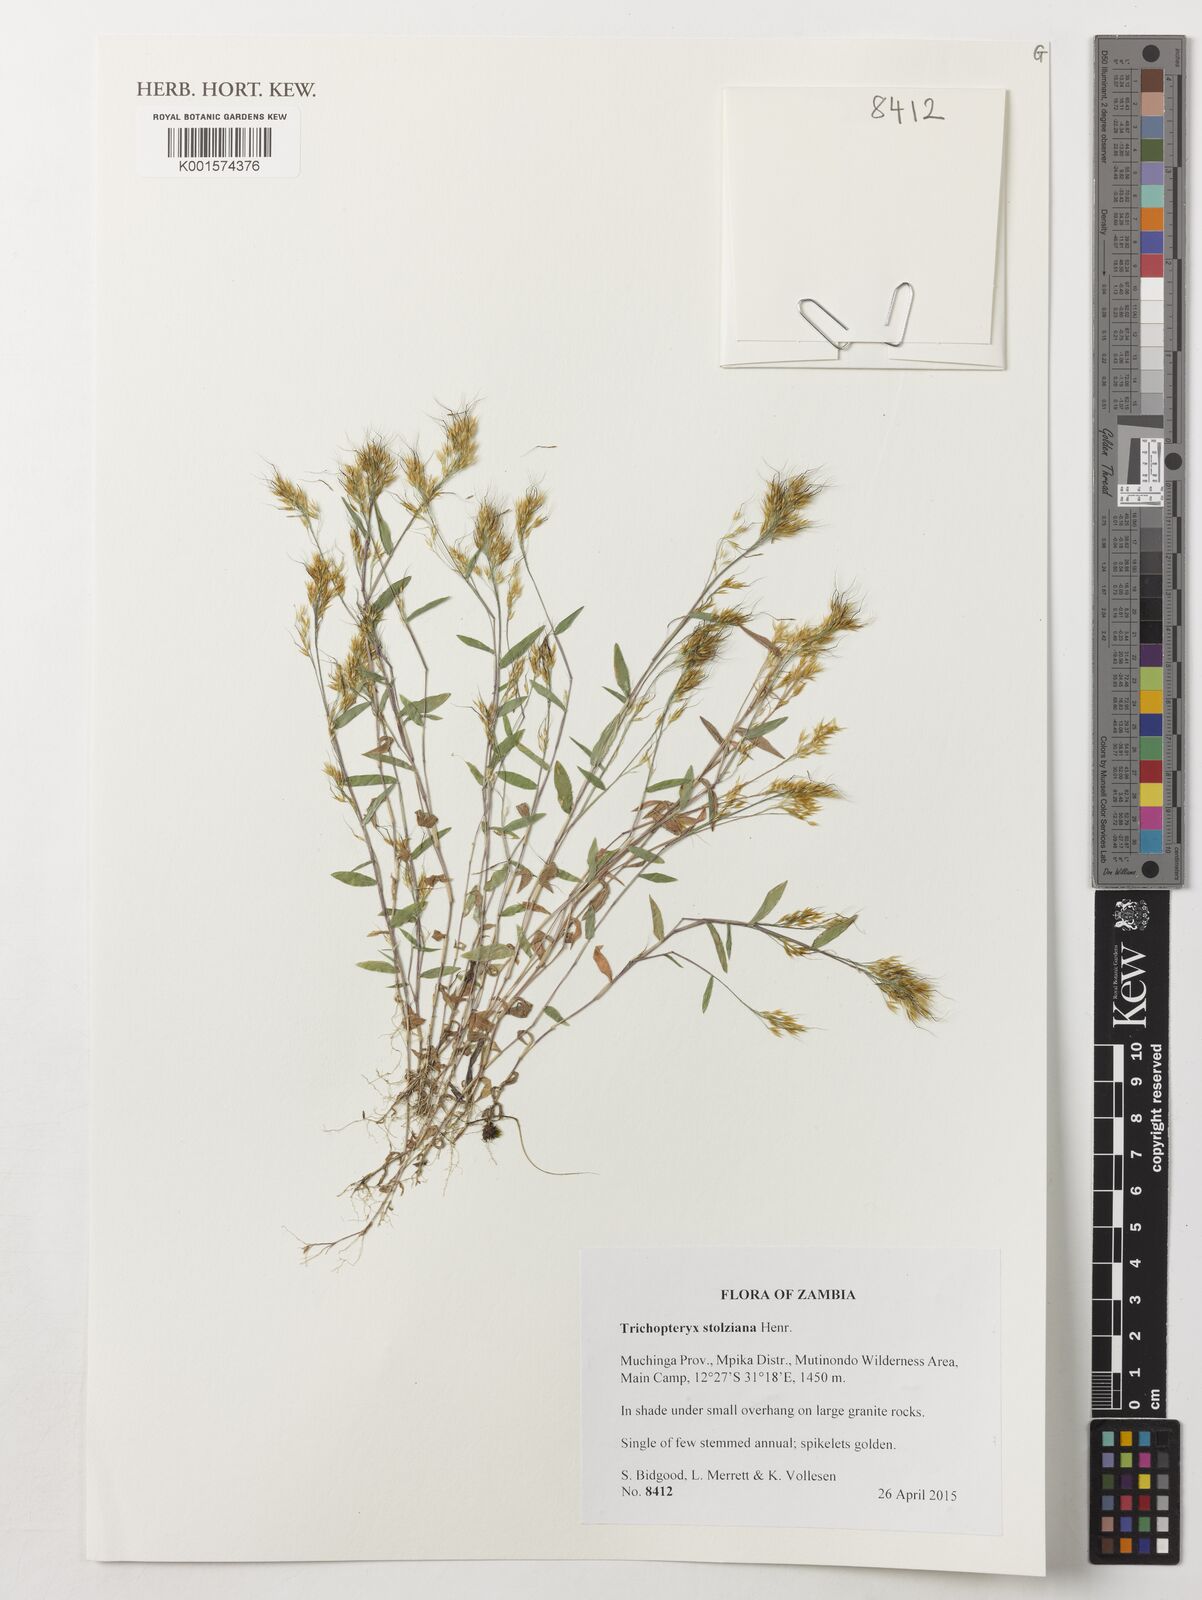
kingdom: Plantae
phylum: Tracheophyta
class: Liliopsida
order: Poales
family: Poaceae
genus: Trichopteryx
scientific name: Trichopteryx stolziana
